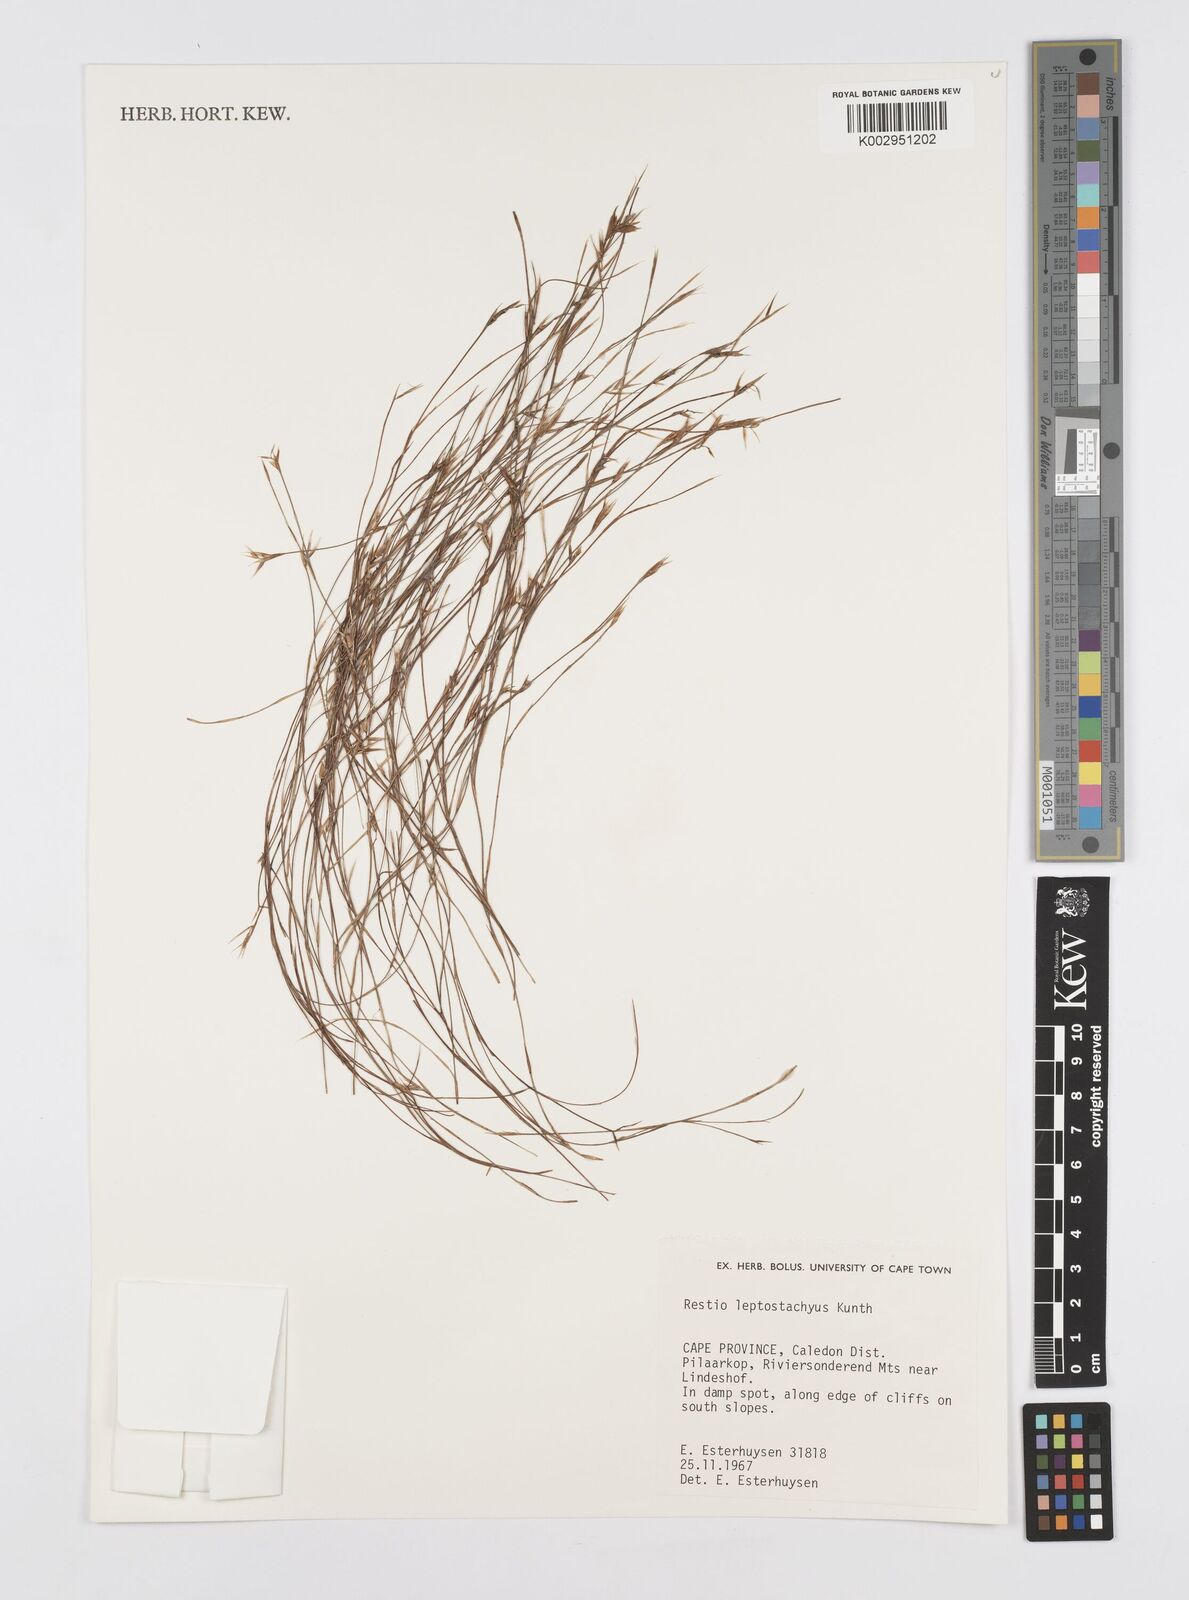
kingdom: Plantae
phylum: Tracheophyta
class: Liliopsida
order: Poales
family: Restionaceae
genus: Restio
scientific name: Restio leptostachyus
